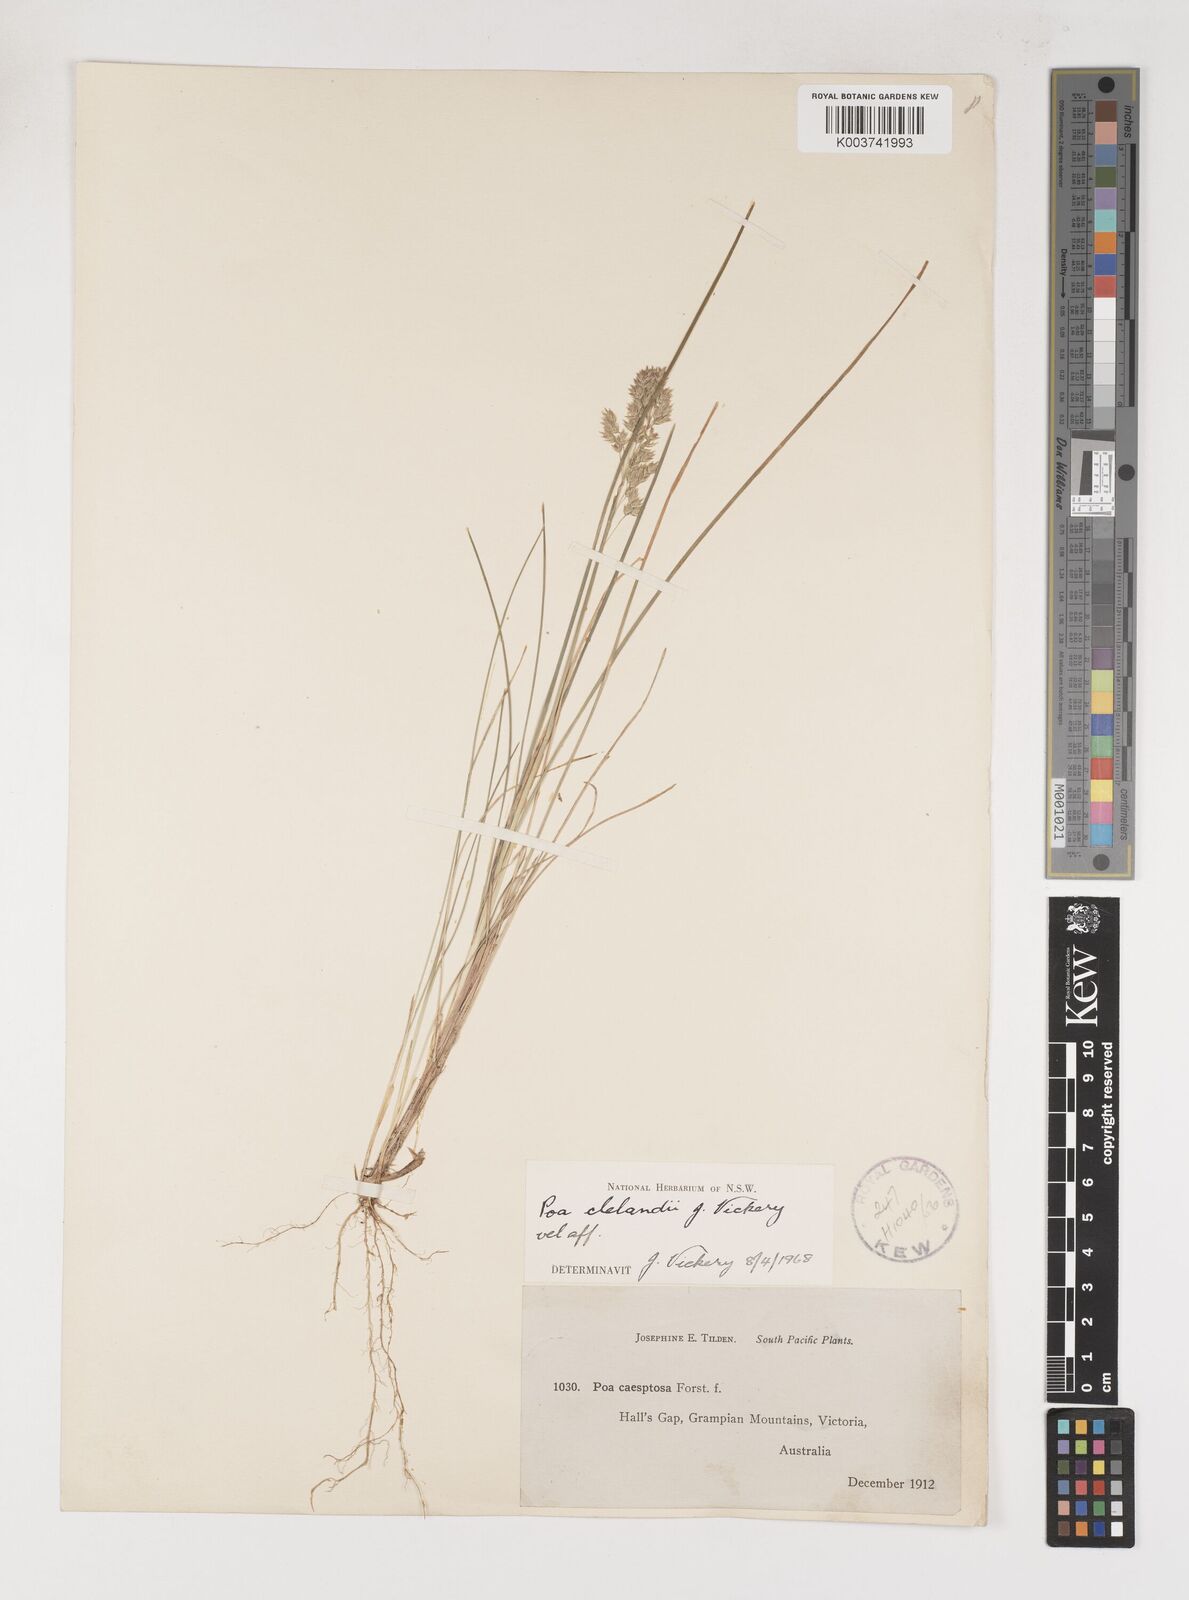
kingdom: Plantae
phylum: Tracheophyta
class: Liliopsida
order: Poales
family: Poaceae
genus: Poa
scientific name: Poa clelandii
